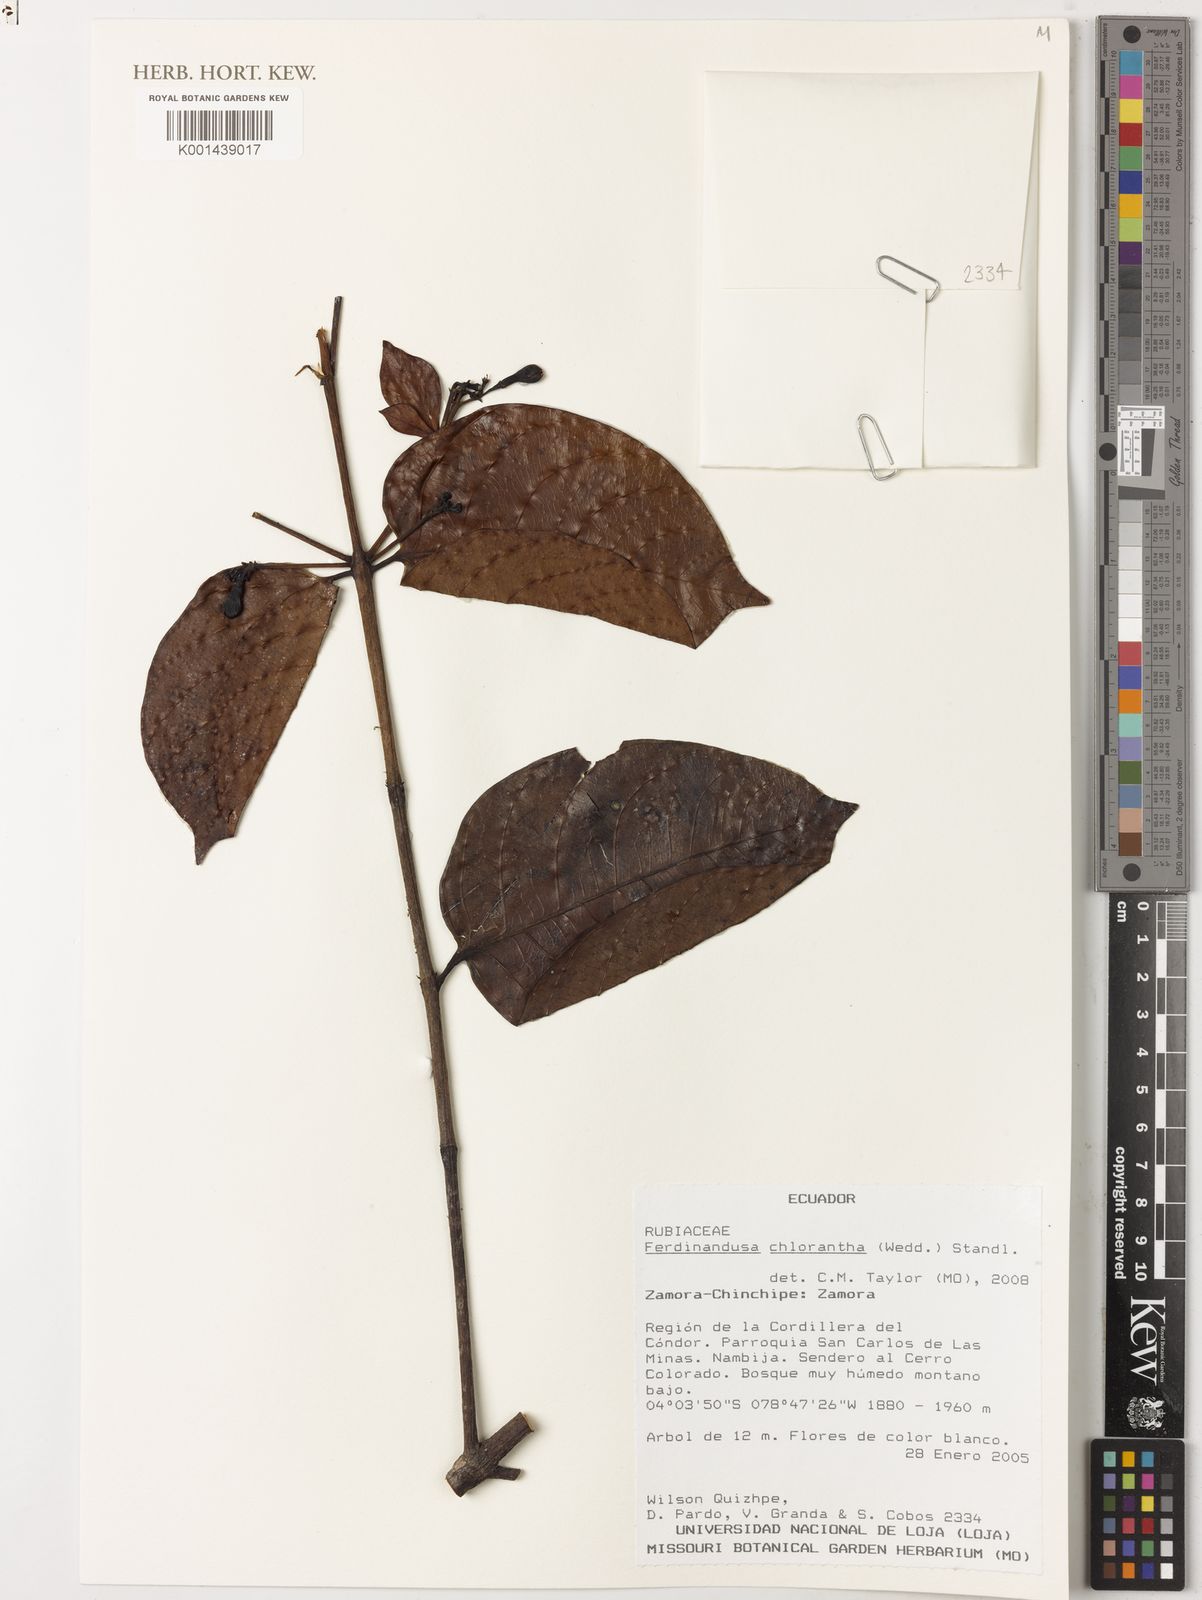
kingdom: Plantae
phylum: Tracheophyta
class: Magnoliopsida
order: Gentianales
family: Rubiaceae
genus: Ferdinandusa
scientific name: Ferdinandusa chlorantha
